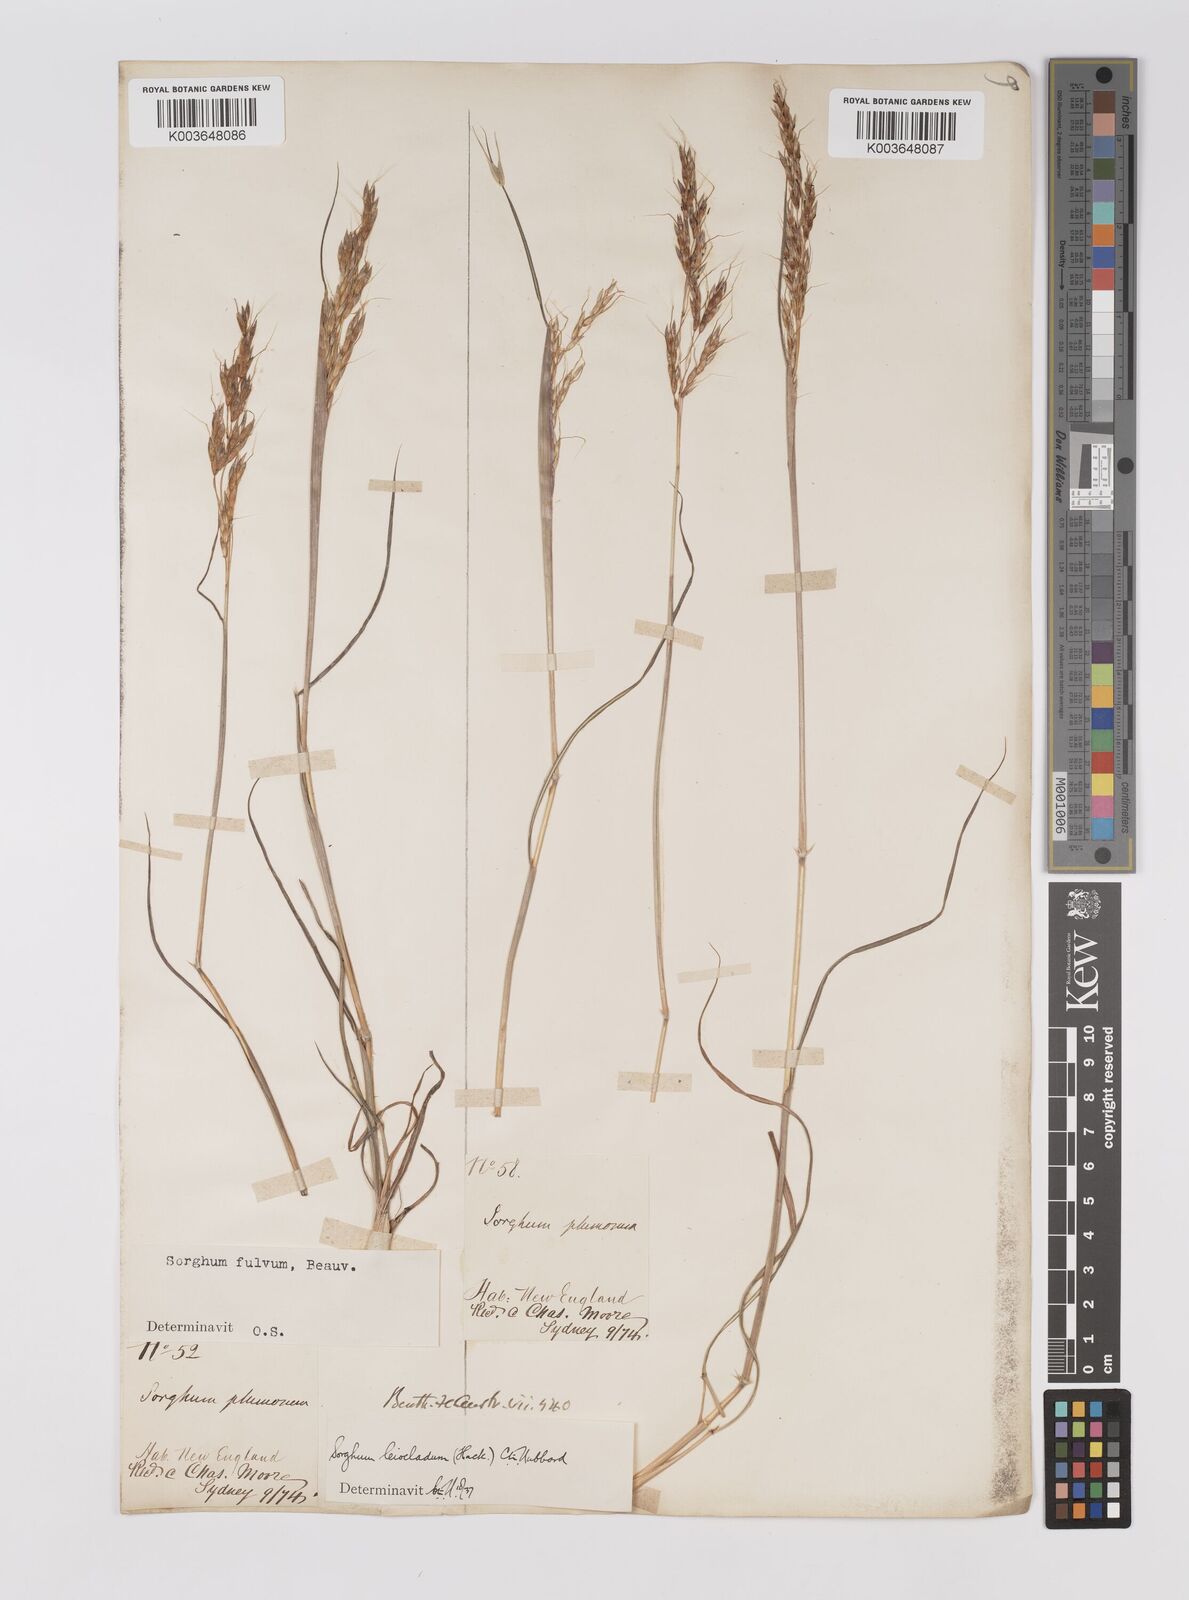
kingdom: Plantae
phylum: Tracheophyta
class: Liliopsida
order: Poales
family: Poaceae
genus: Sarga
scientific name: Sarga leioclada
